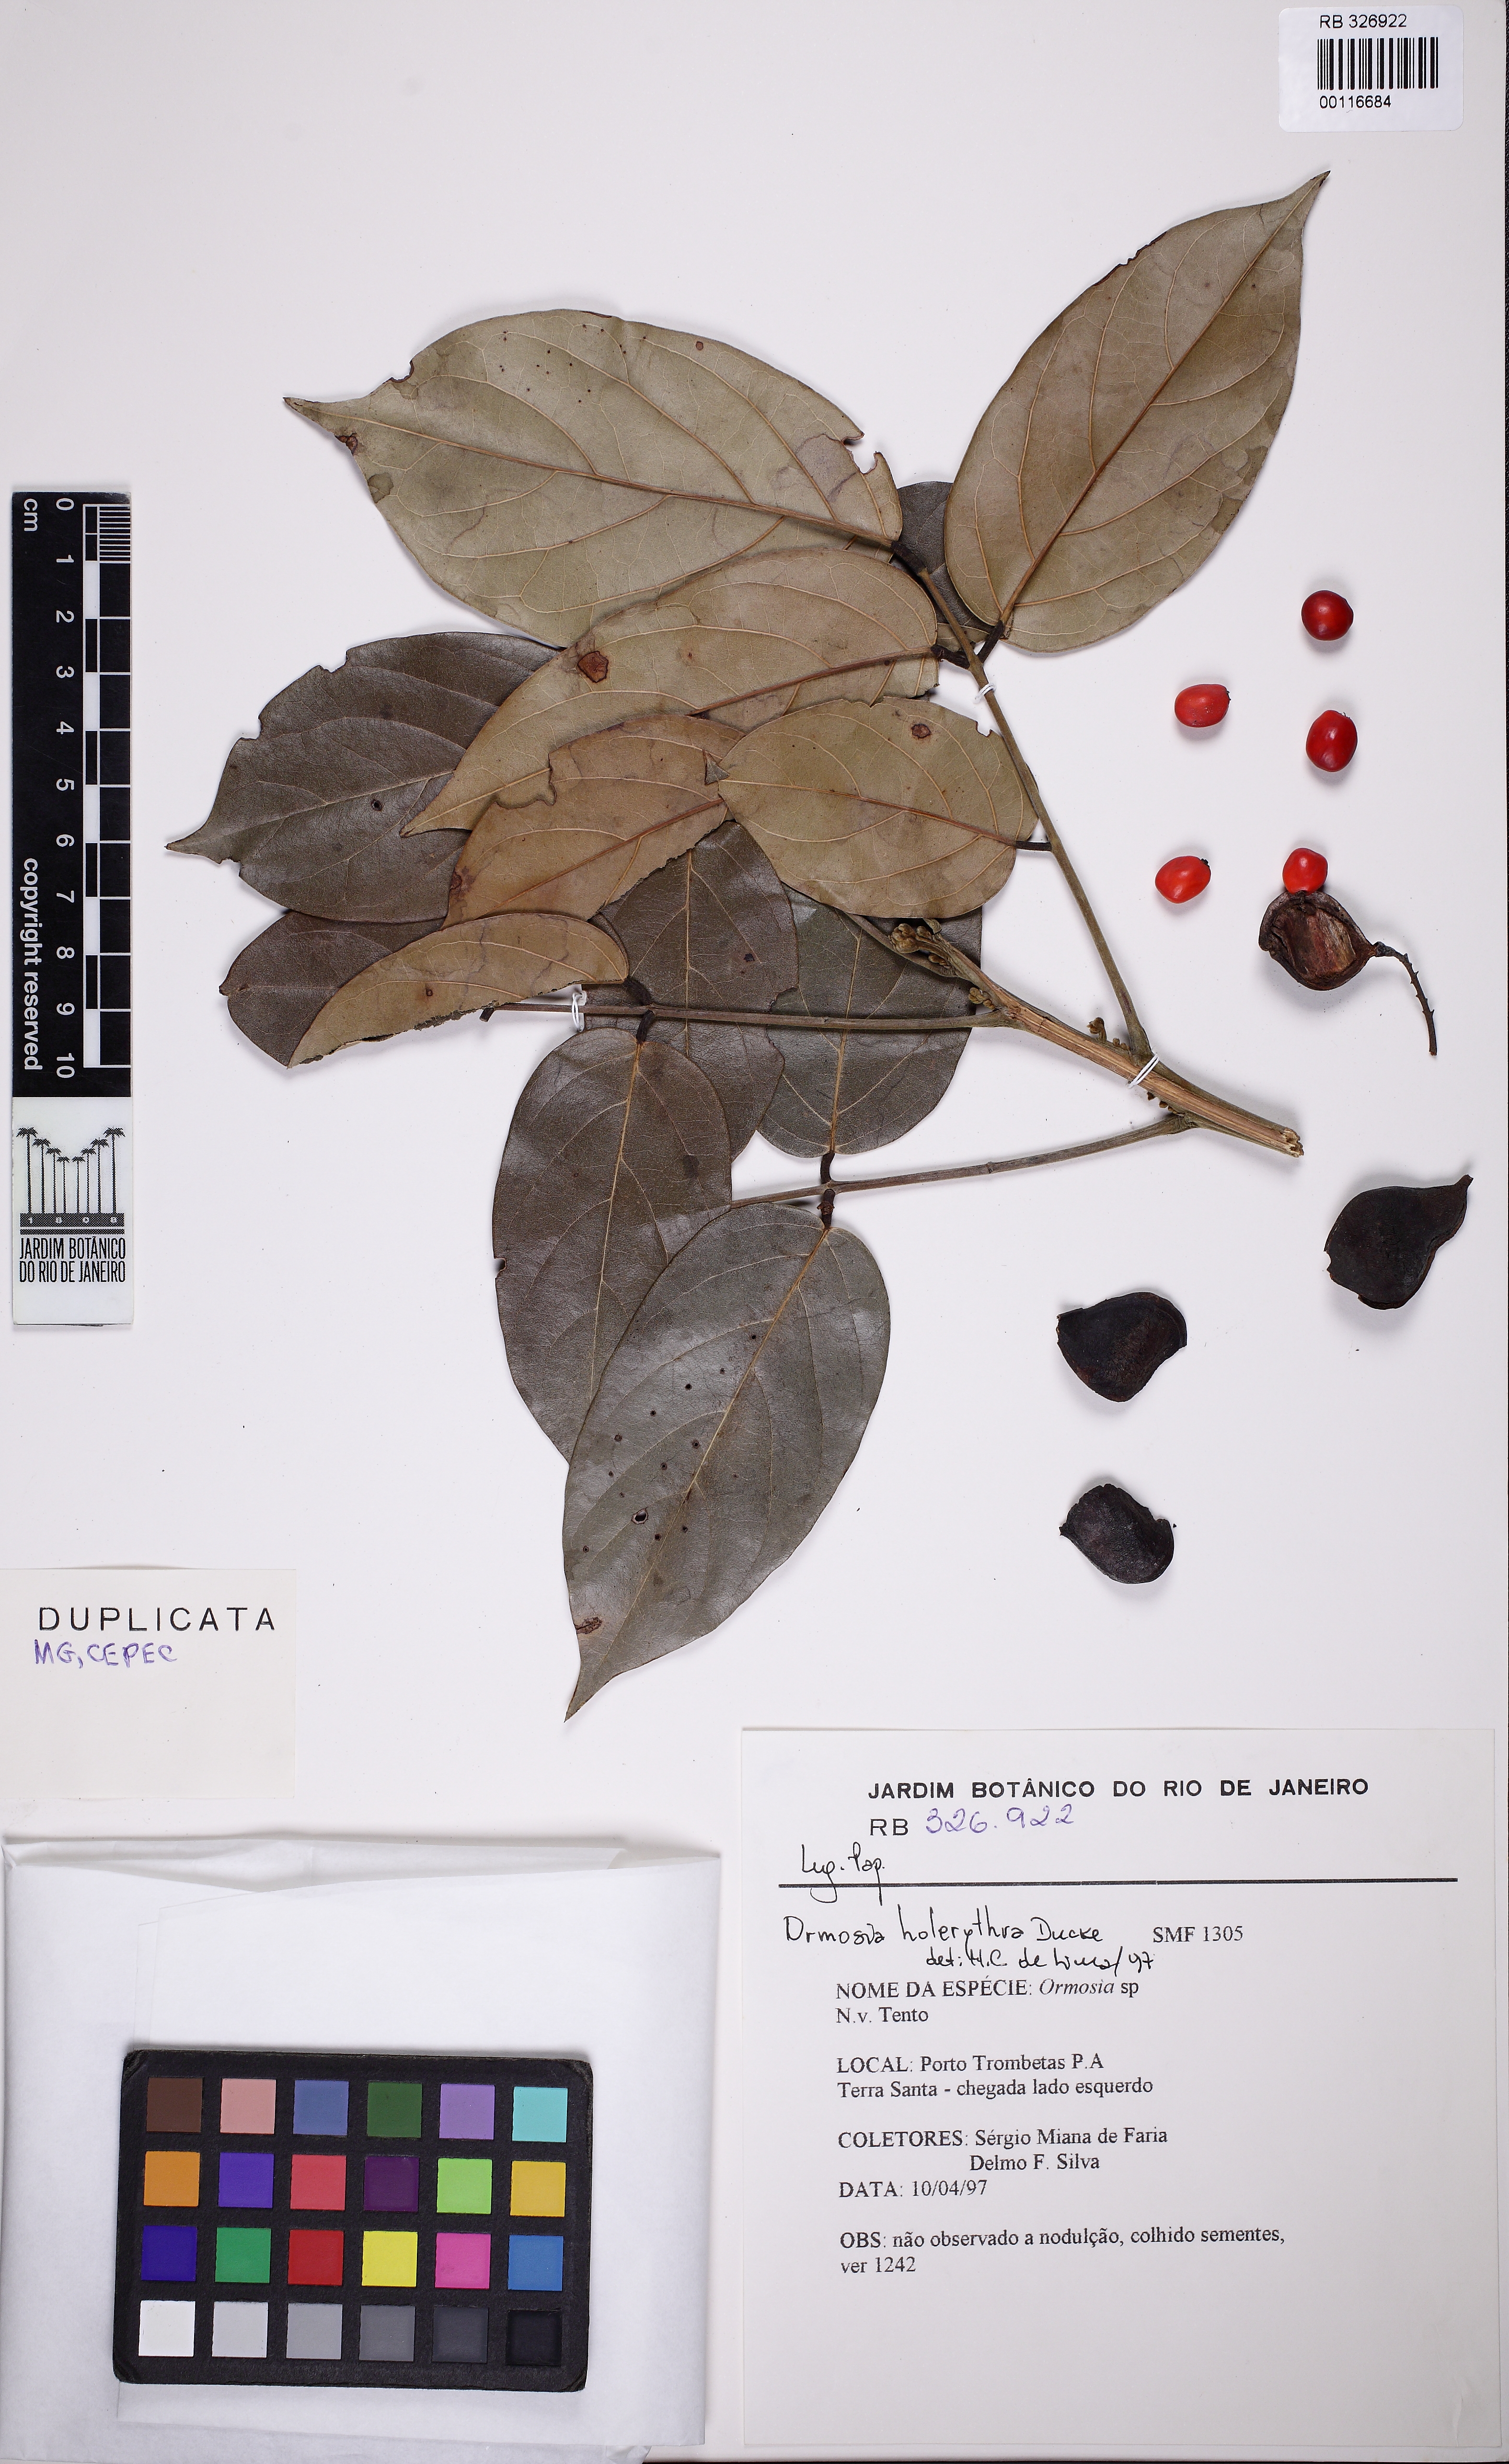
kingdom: Plantae
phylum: Tracheophyta
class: Magnoliopsida
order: Fabales
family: Fabaceae
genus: Ormosia
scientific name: Ormosia holerythra
